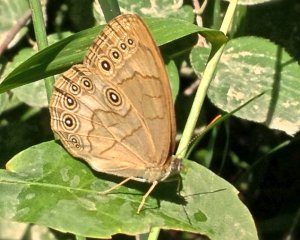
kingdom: Animalia
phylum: Arthropoda
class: Insecta
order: Lepidoptera
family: Nymphalidae
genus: Lethe
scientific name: Lethe anthedon
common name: Northern Pearly-Eye
